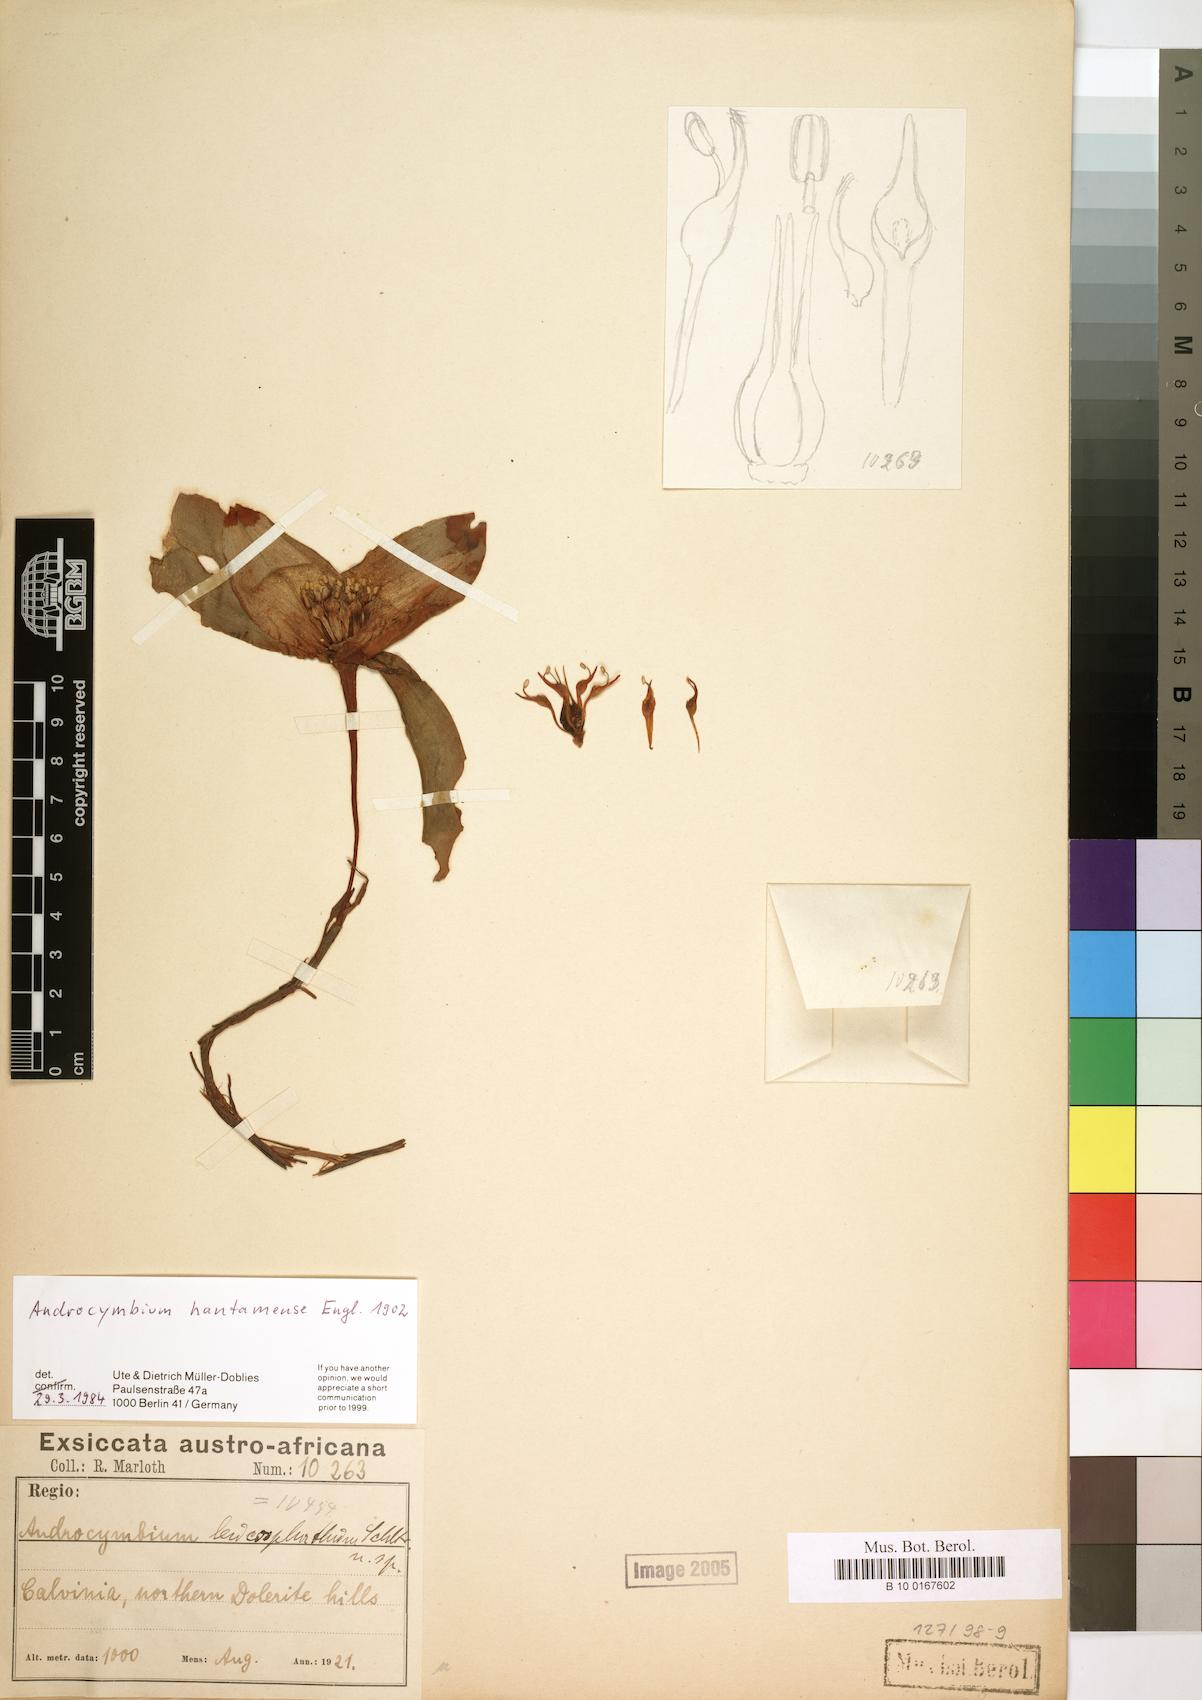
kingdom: Plantae
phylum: Tracheophyta
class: Liliopsida
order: Liliales
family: Colchicaceae
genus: Colchicum
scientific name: Colchicum hantamense
